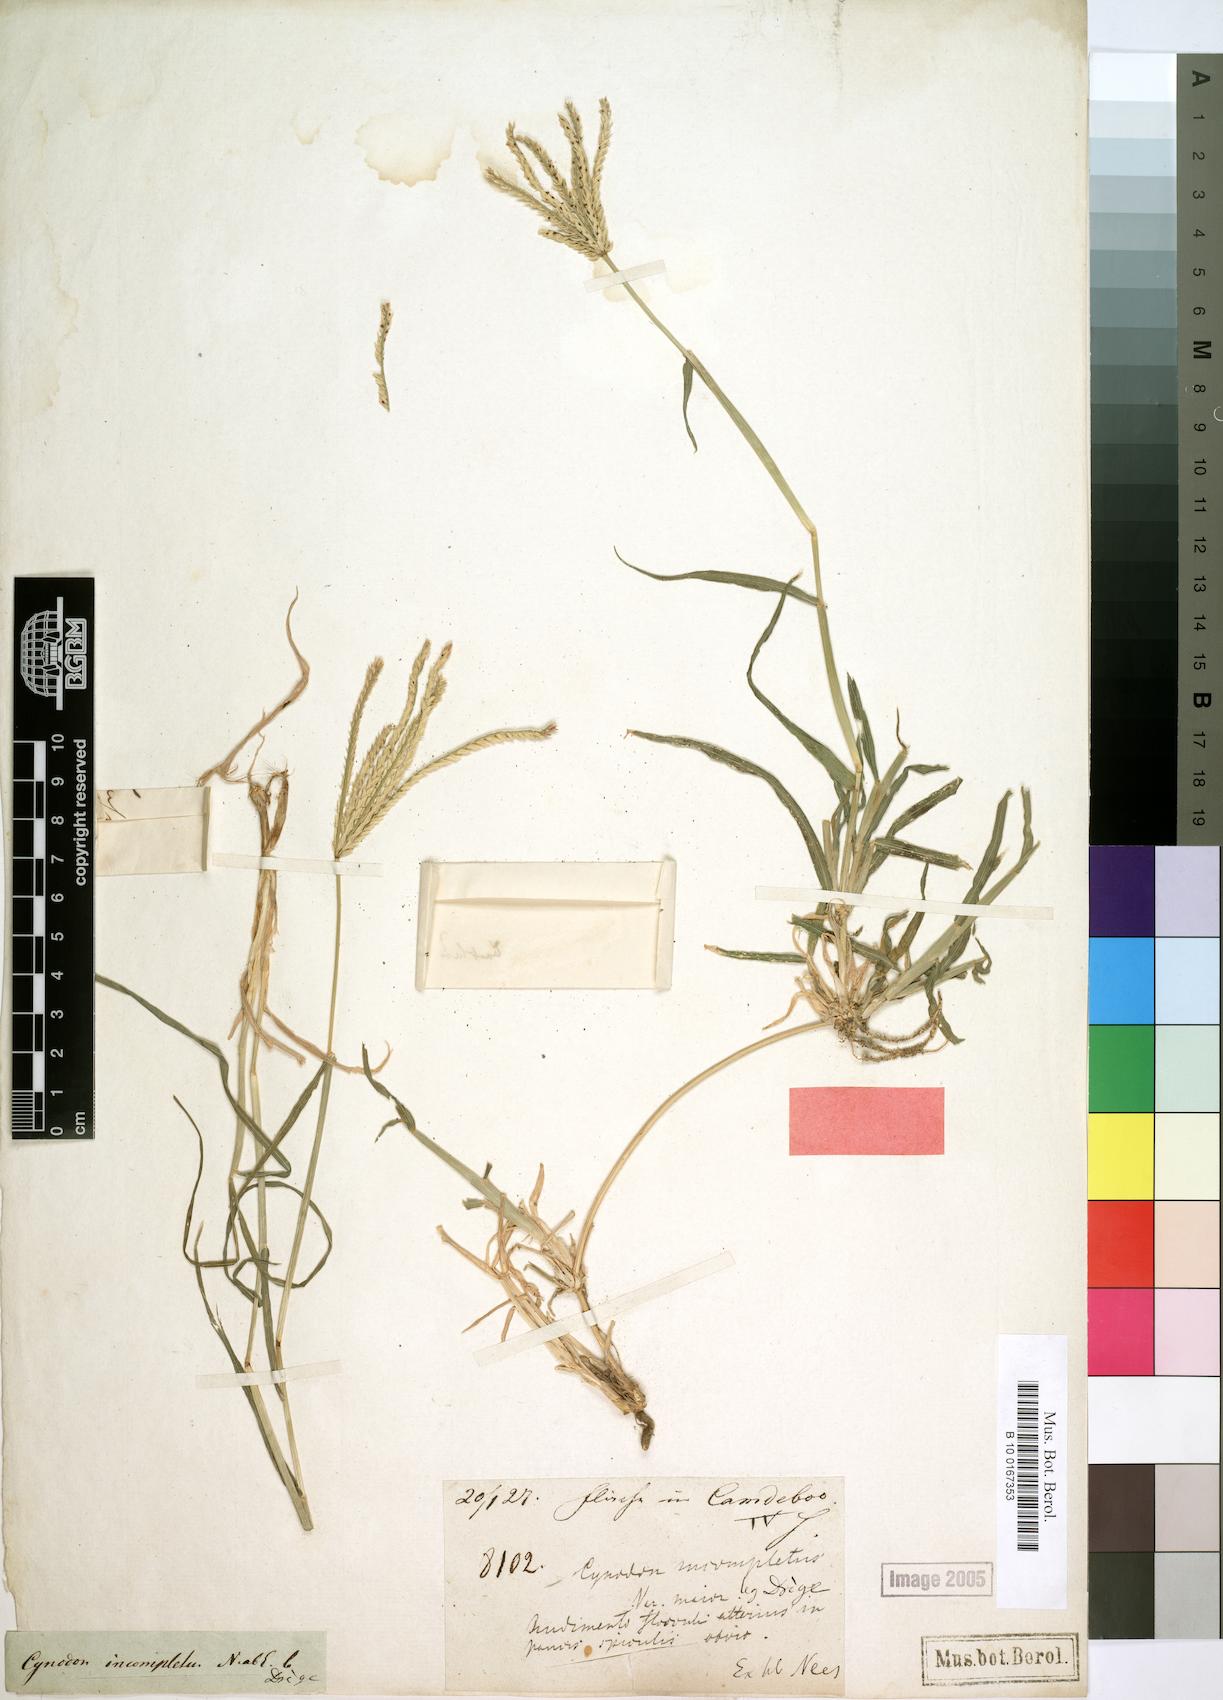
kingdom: Plantae
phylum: Tracheophyta
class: Liliopsida
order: Poales
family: Poaceae
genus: Cynodon
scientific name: Cynodon incompletus
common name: African bermuda-grass
